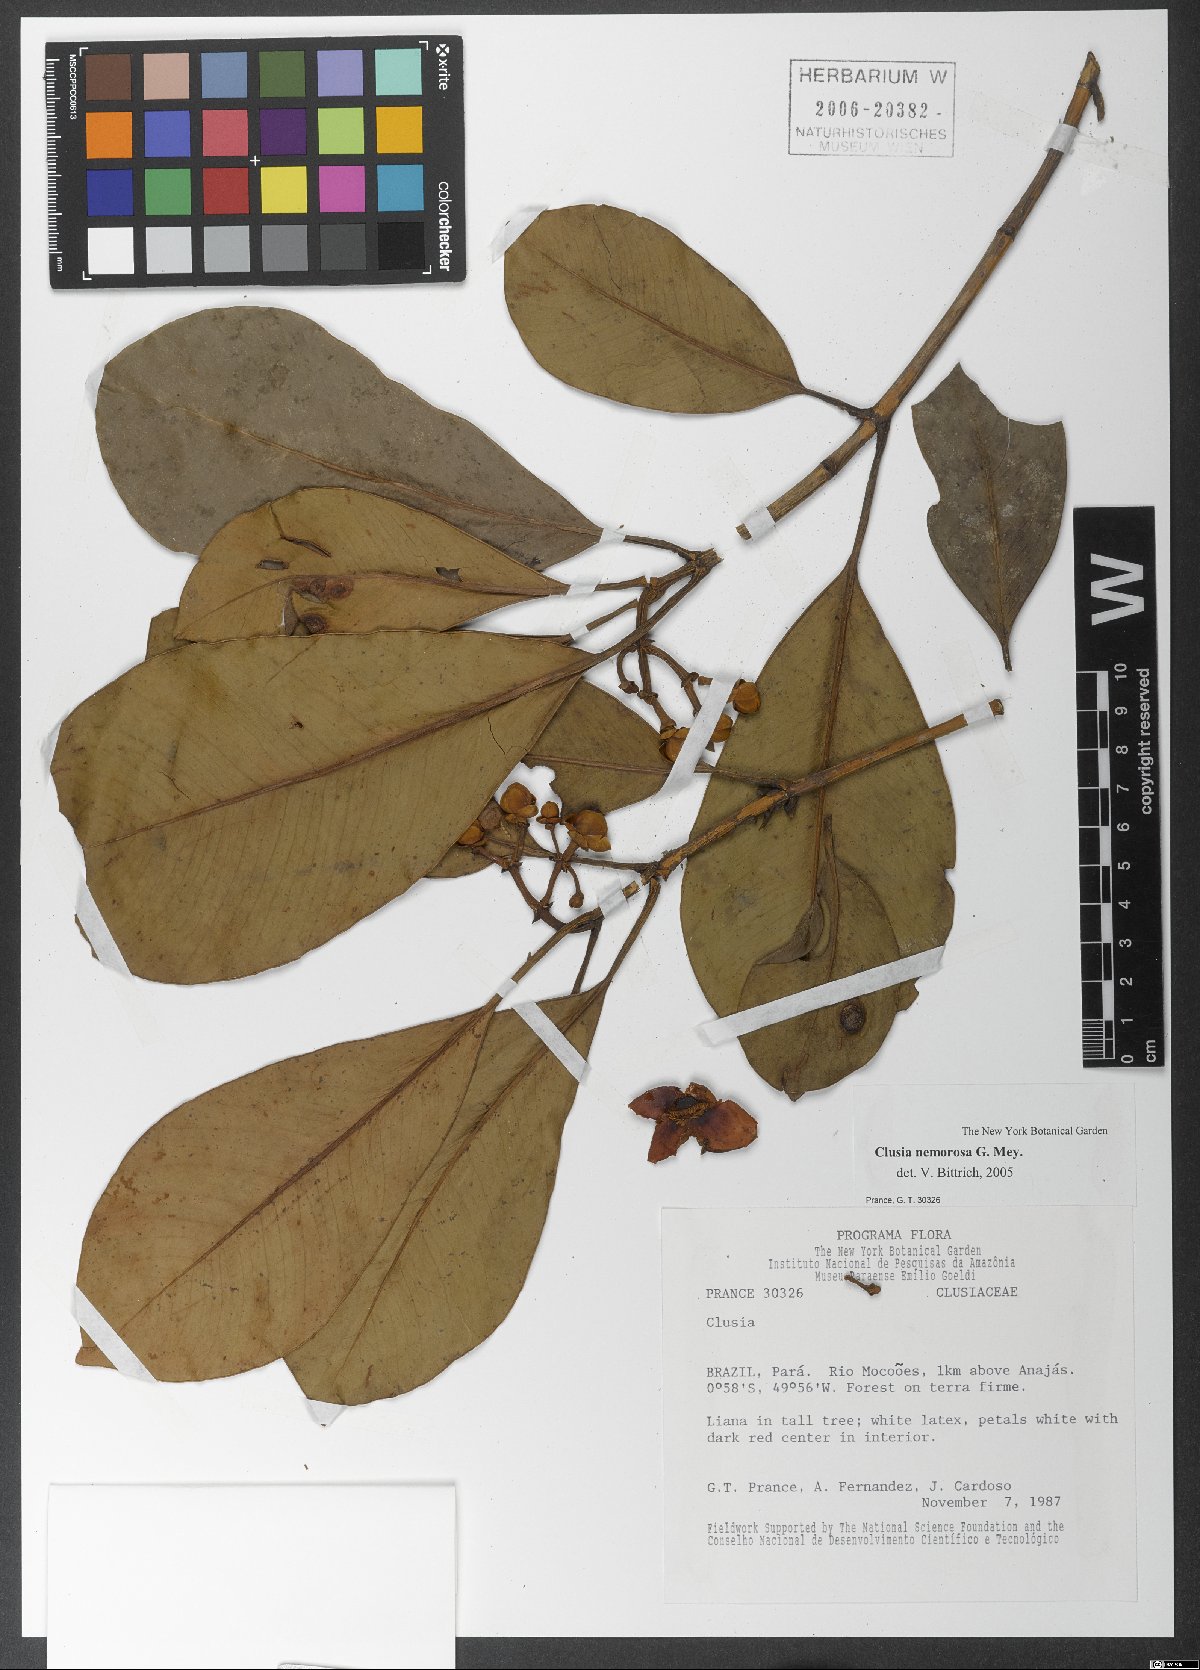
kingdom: Plantae
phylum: Tracheophyta
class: Magnoliopsida
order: Malpighiales
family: Clusiaceae
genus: Clusia
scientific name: Clusia nemorosa
